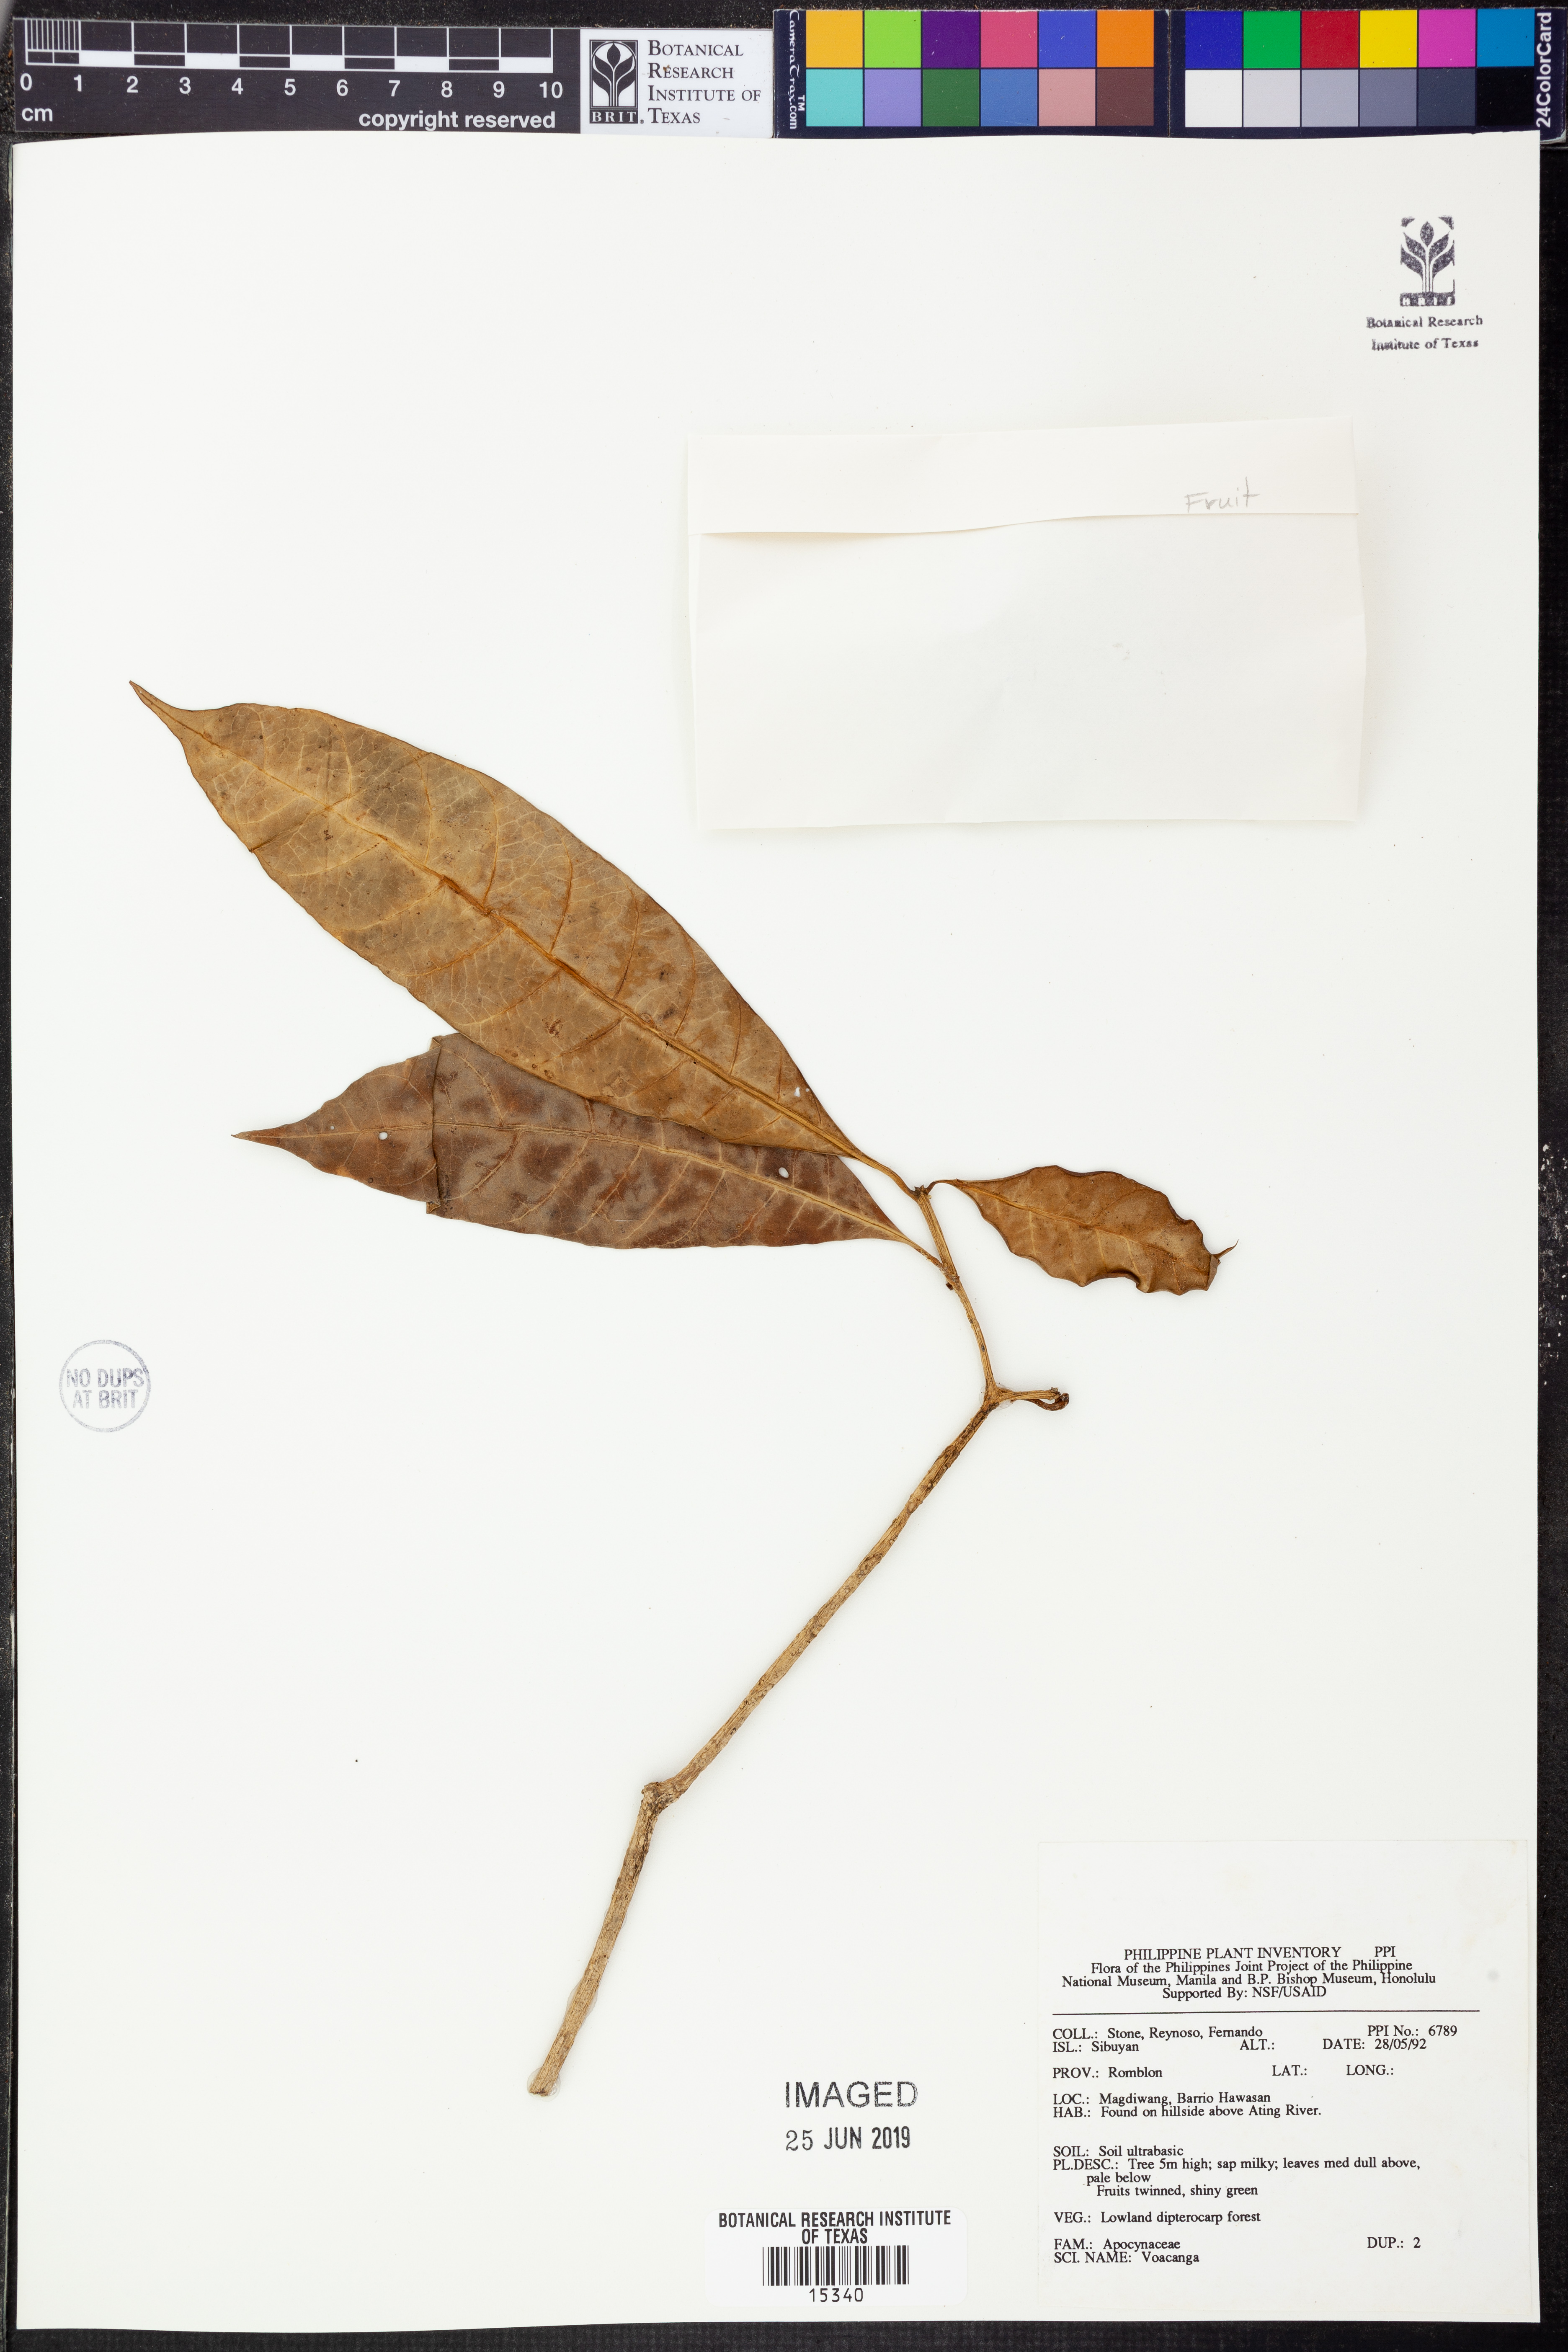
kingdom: Plantae
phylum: Tracheophyta
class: Magnoliopsida
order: Gentianales
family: Apocynaceae
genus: Voacanga
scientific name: Voacanga
